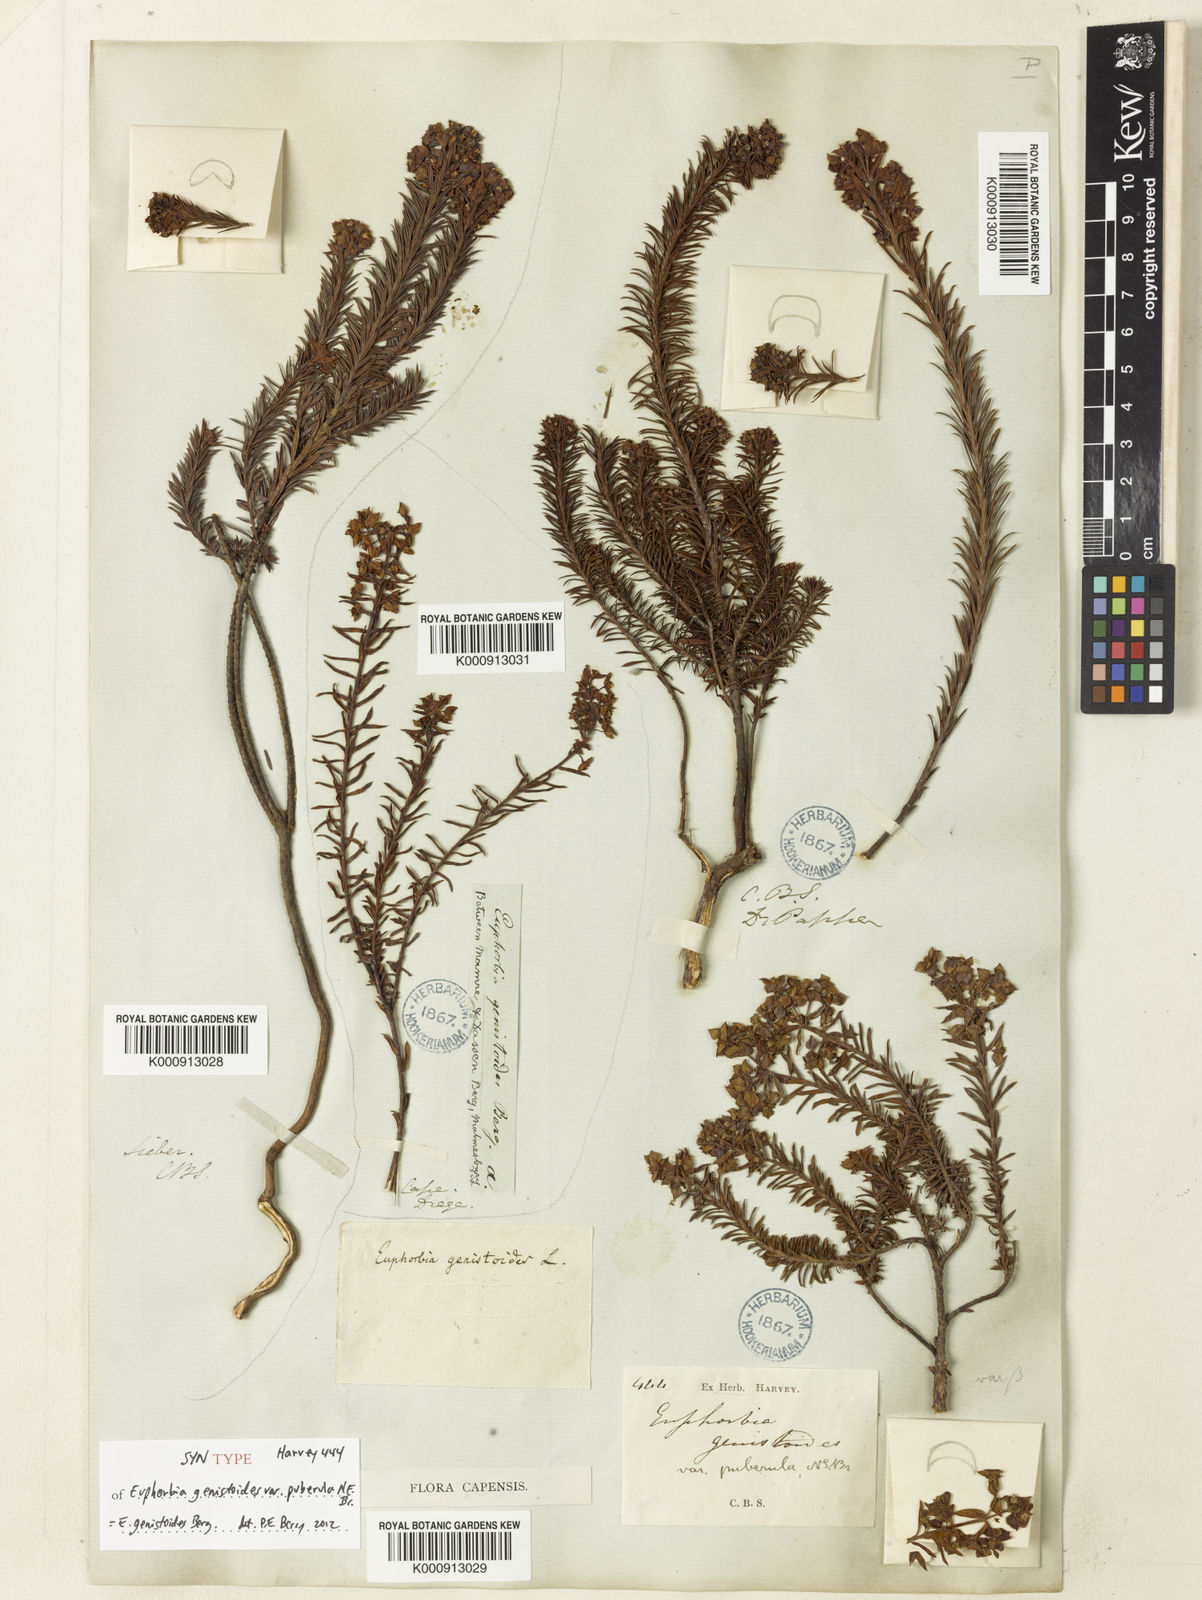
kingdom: Plantae
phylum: Tracheophyta
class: Magnoliopsida
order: Malpighiales
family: Euphorbiaceae
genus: Euphorbia
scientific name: Euphorbia
